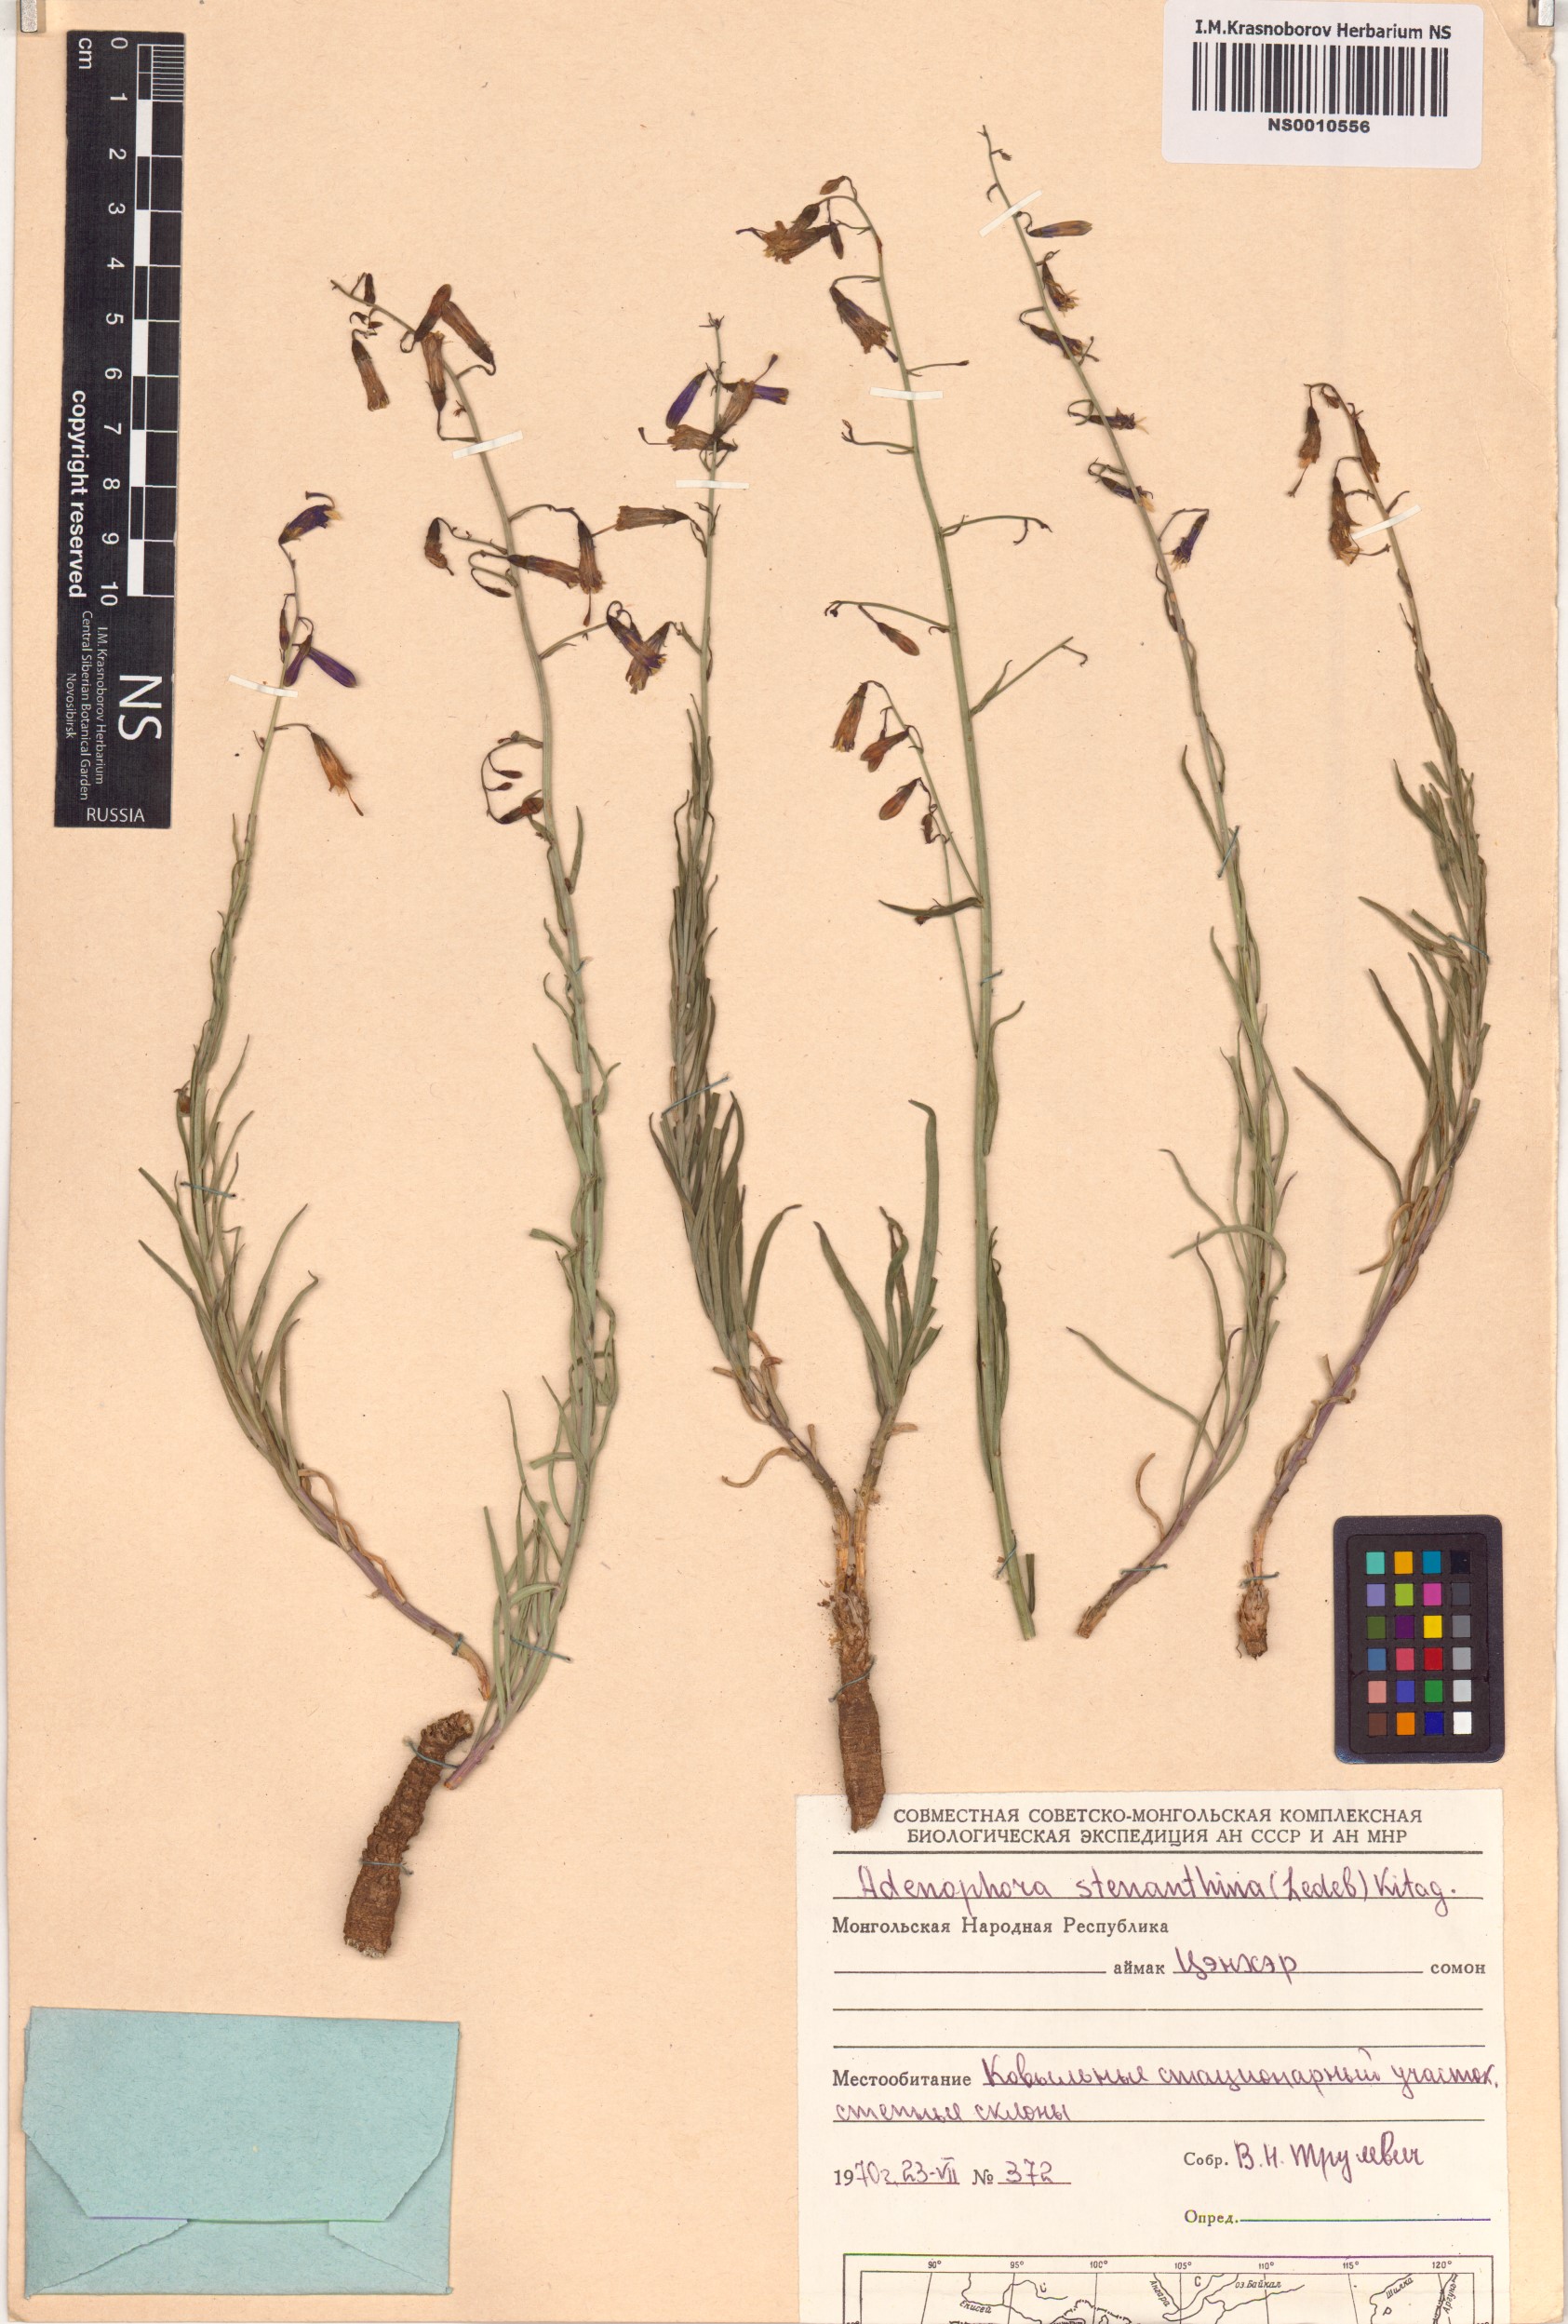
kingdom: Plantae
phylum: Tracheophyta
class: Magnoliopsida
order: Asterales
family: Campanulaceae
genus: Adenophora
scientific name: Adenophora stenanthina
